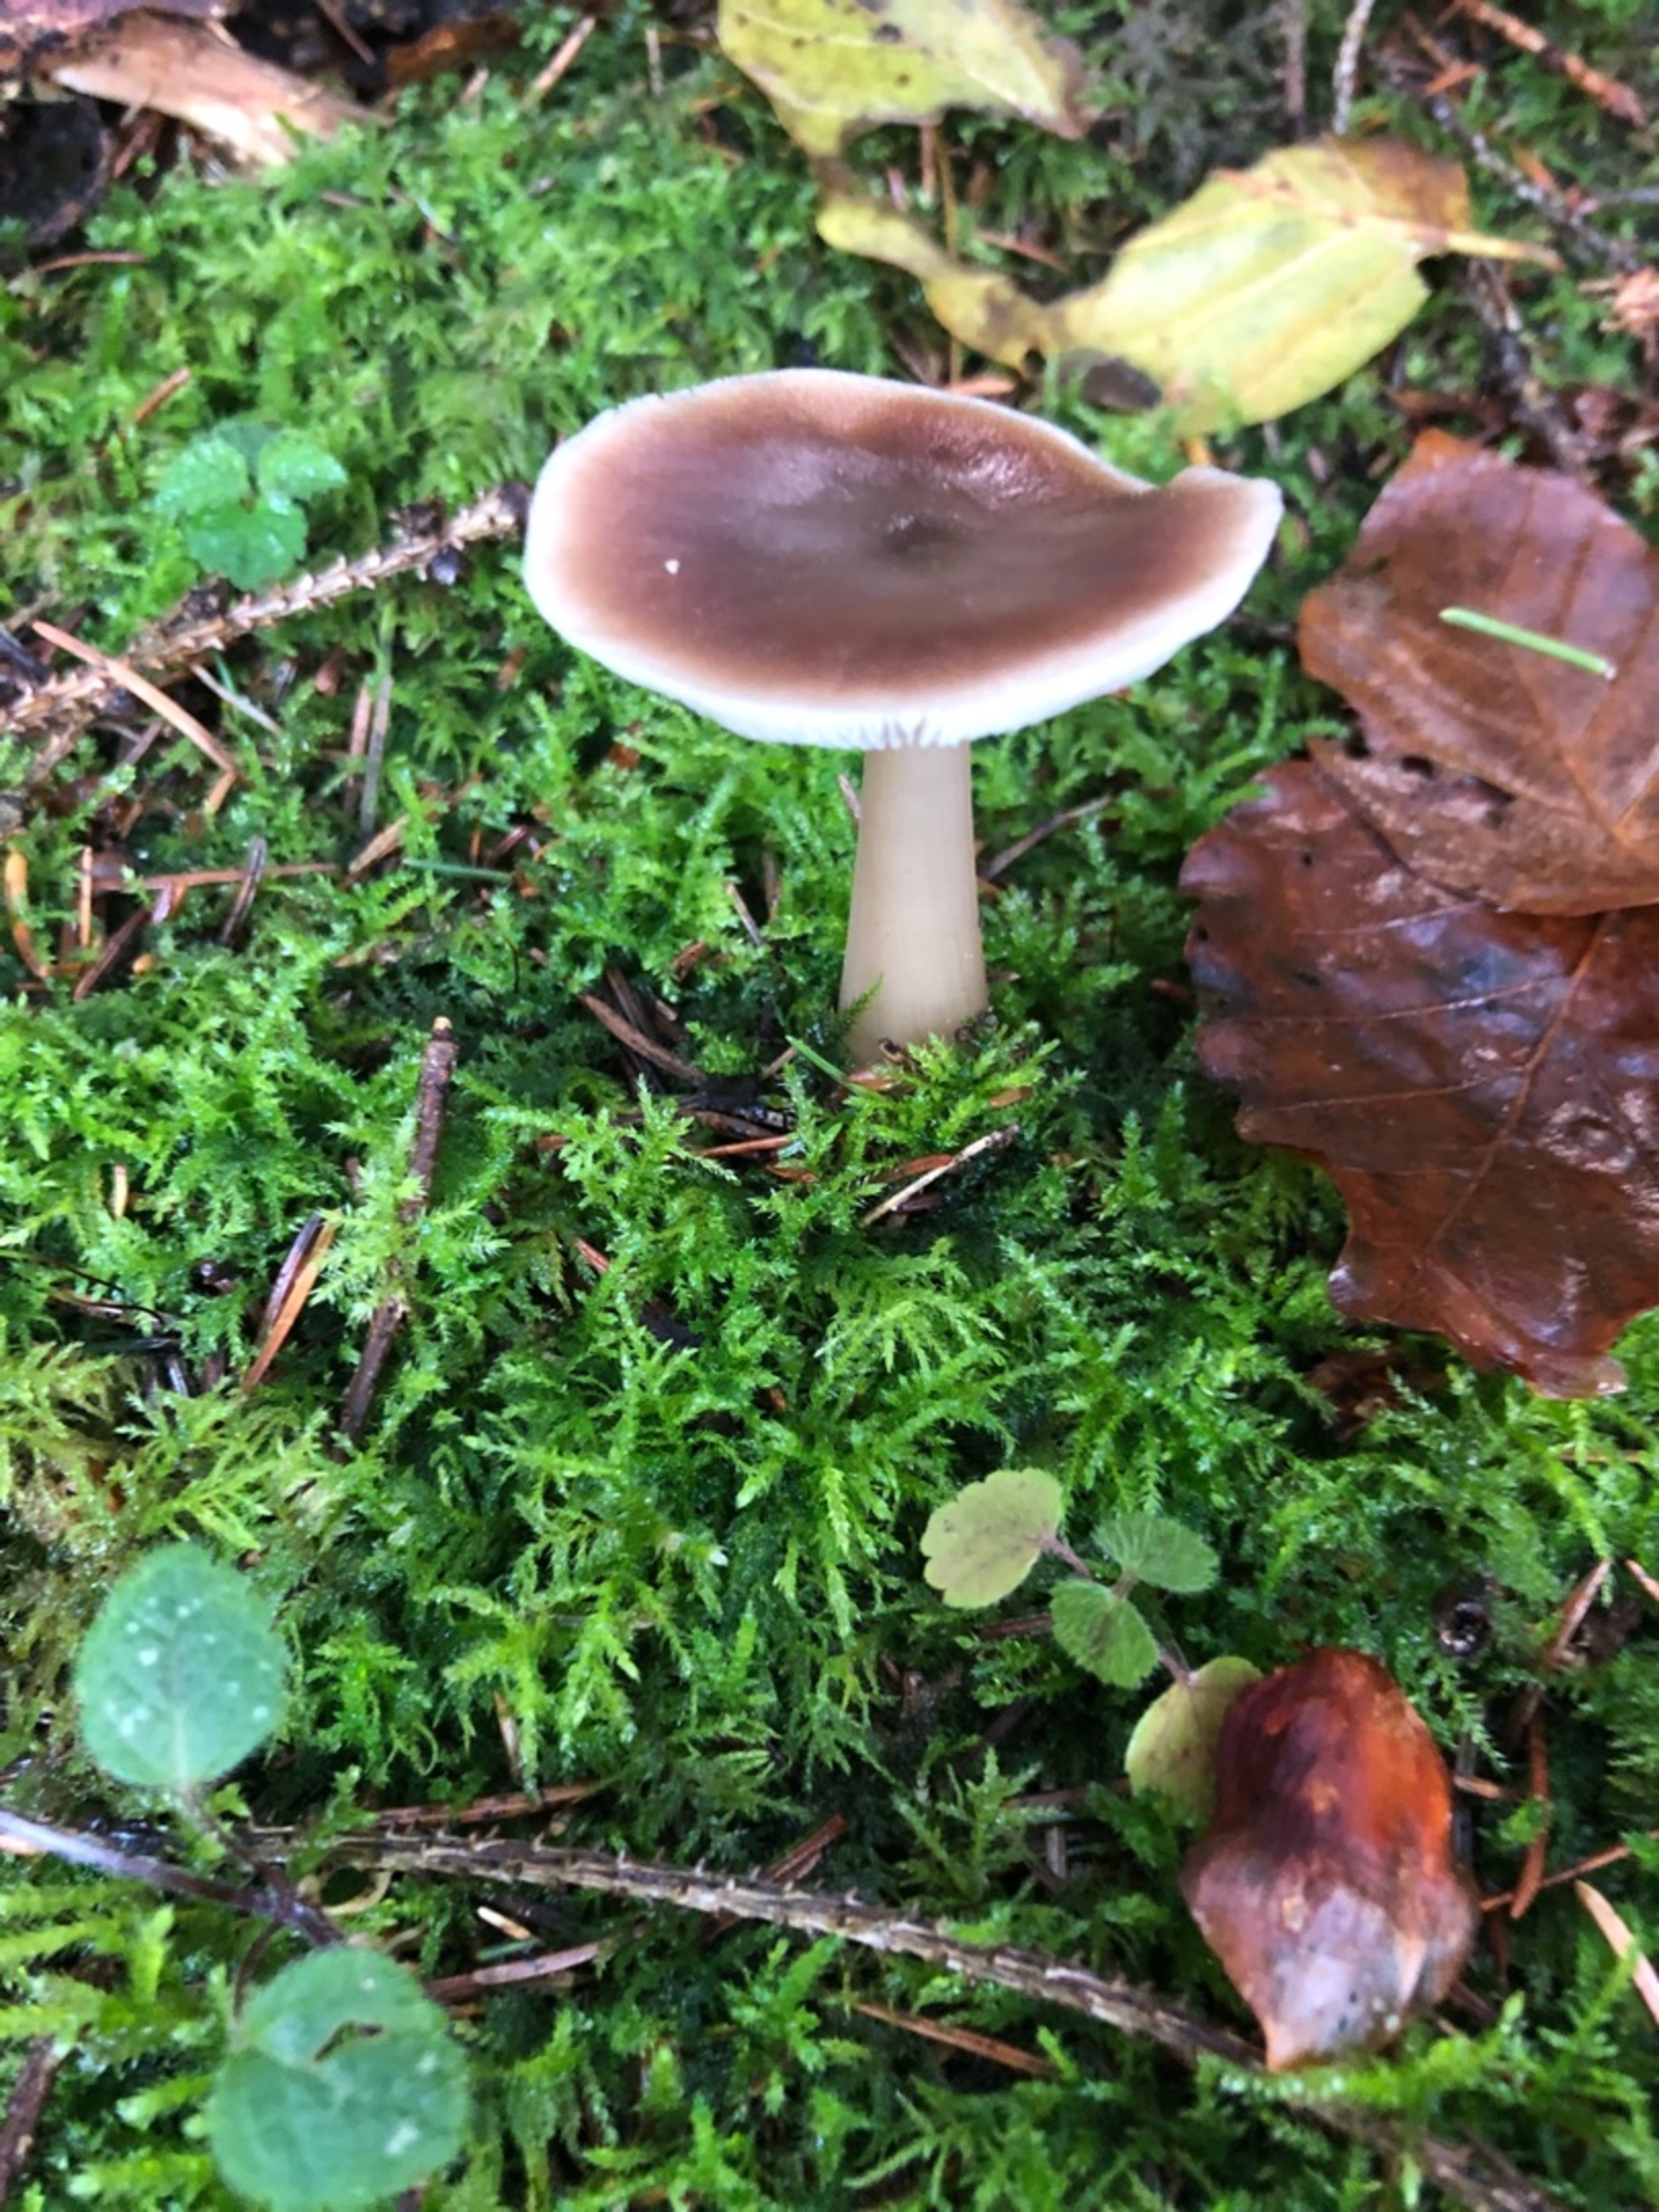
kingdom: Fungi
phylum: Basidiomycota
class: Agaricomycetes
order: Agaricales
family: Omphalotaceae
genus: Rhodocollybia
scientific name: Rhodocollybia butyracea
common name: Keglestokket fladhat
